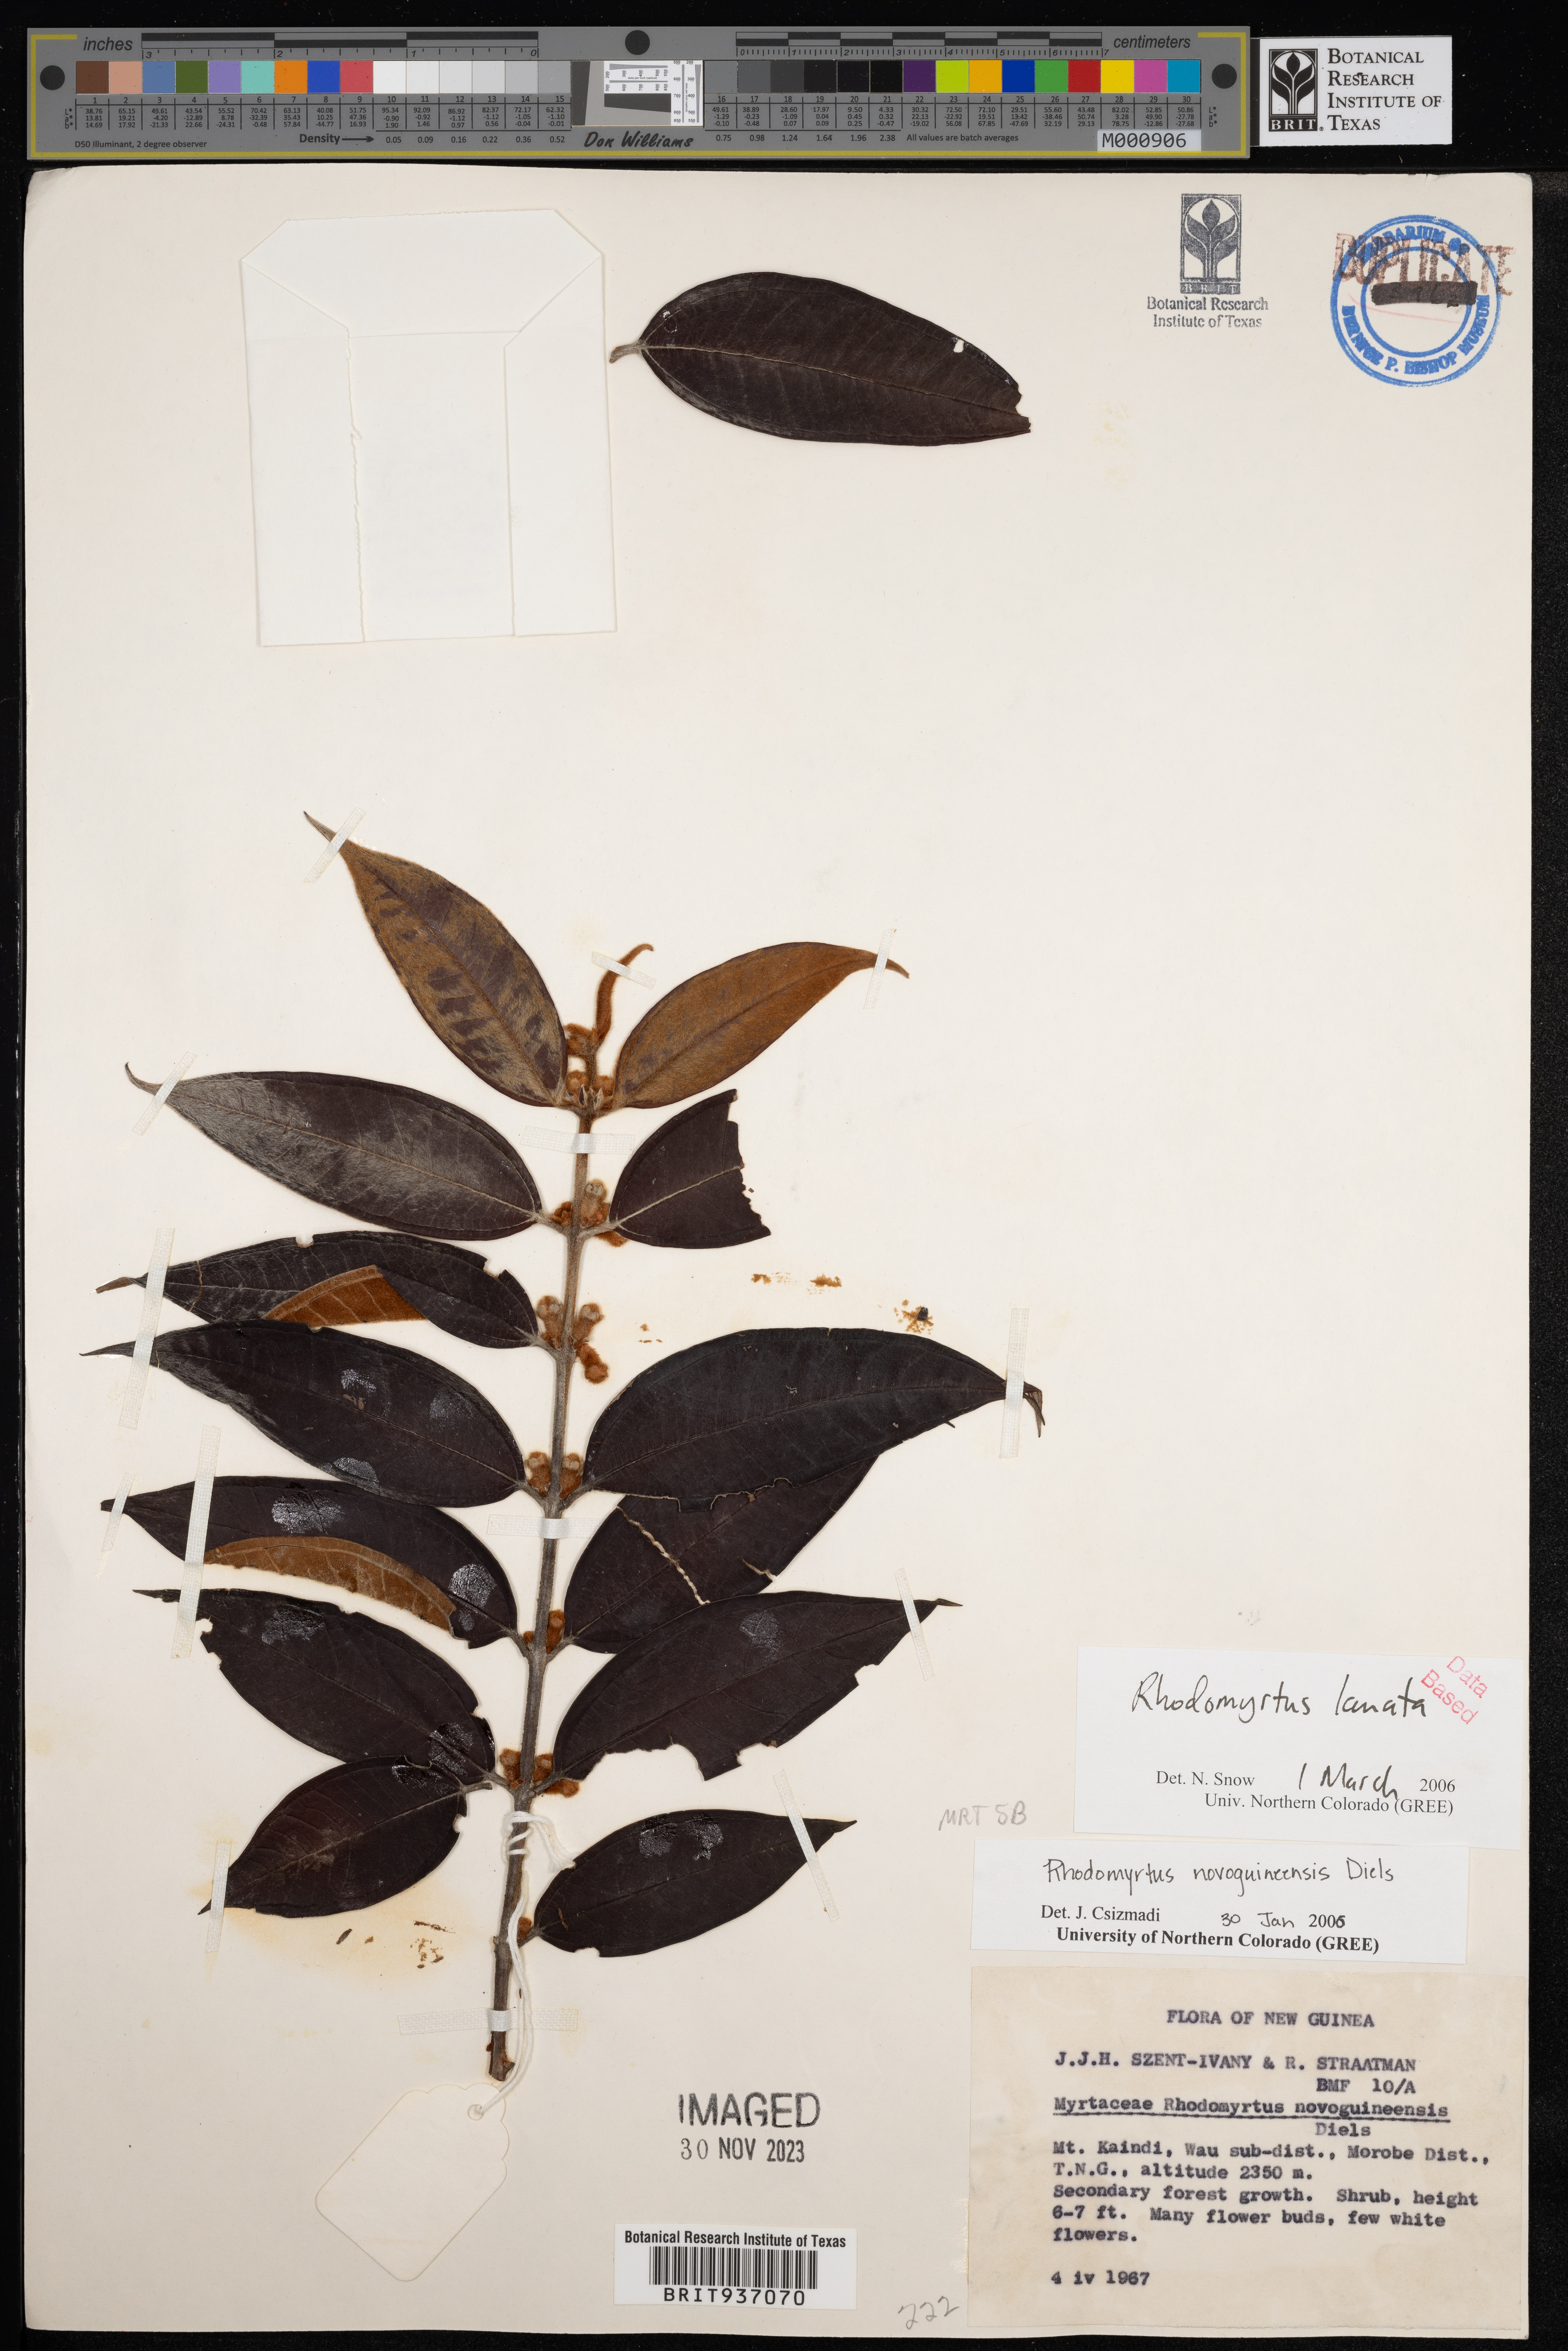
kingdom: Plantae
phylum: Tracheophyta
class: Magnoliopsida
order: Myrtales
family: Myrtaceae
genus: Rhodomyrtus
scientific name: Rhodomyrtus
